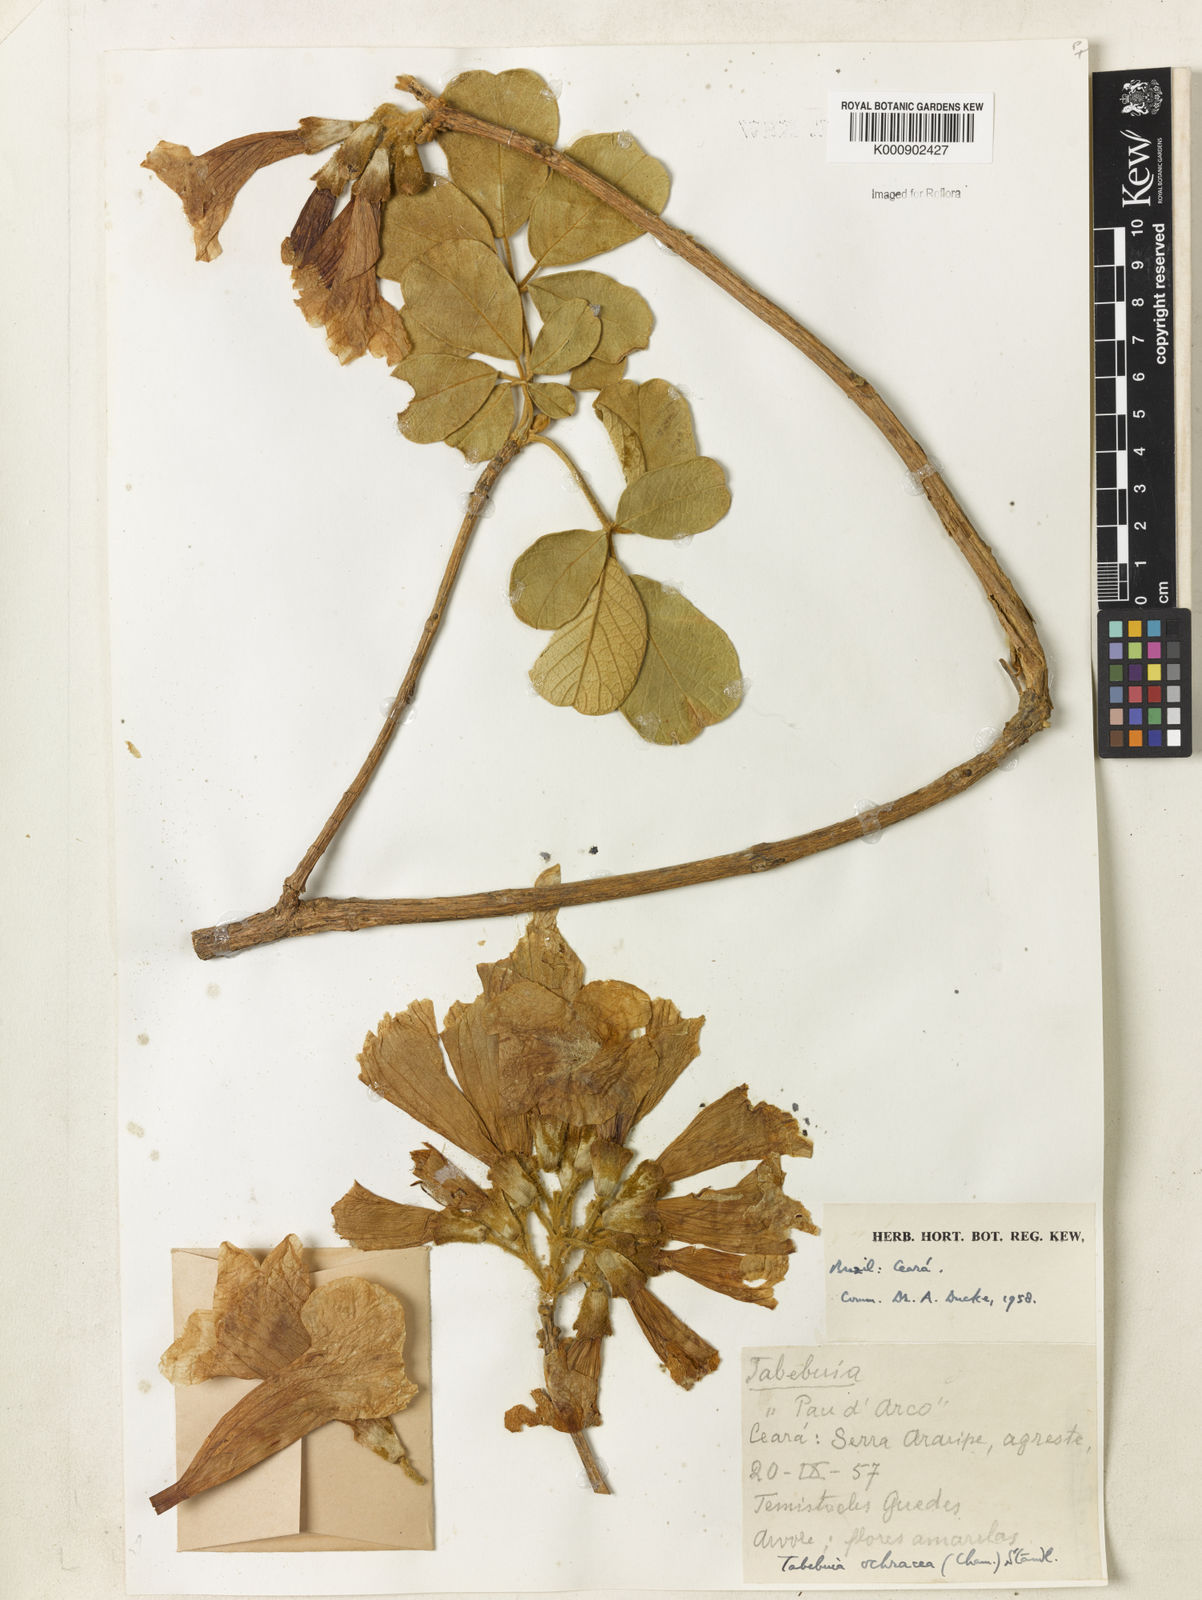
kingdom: Plantae
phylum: Tracheophyta
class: Magnoliopsida
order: Lamiales
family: Bignoniaceae
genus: Handroanthus
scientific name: Handroanthus ochraceus
